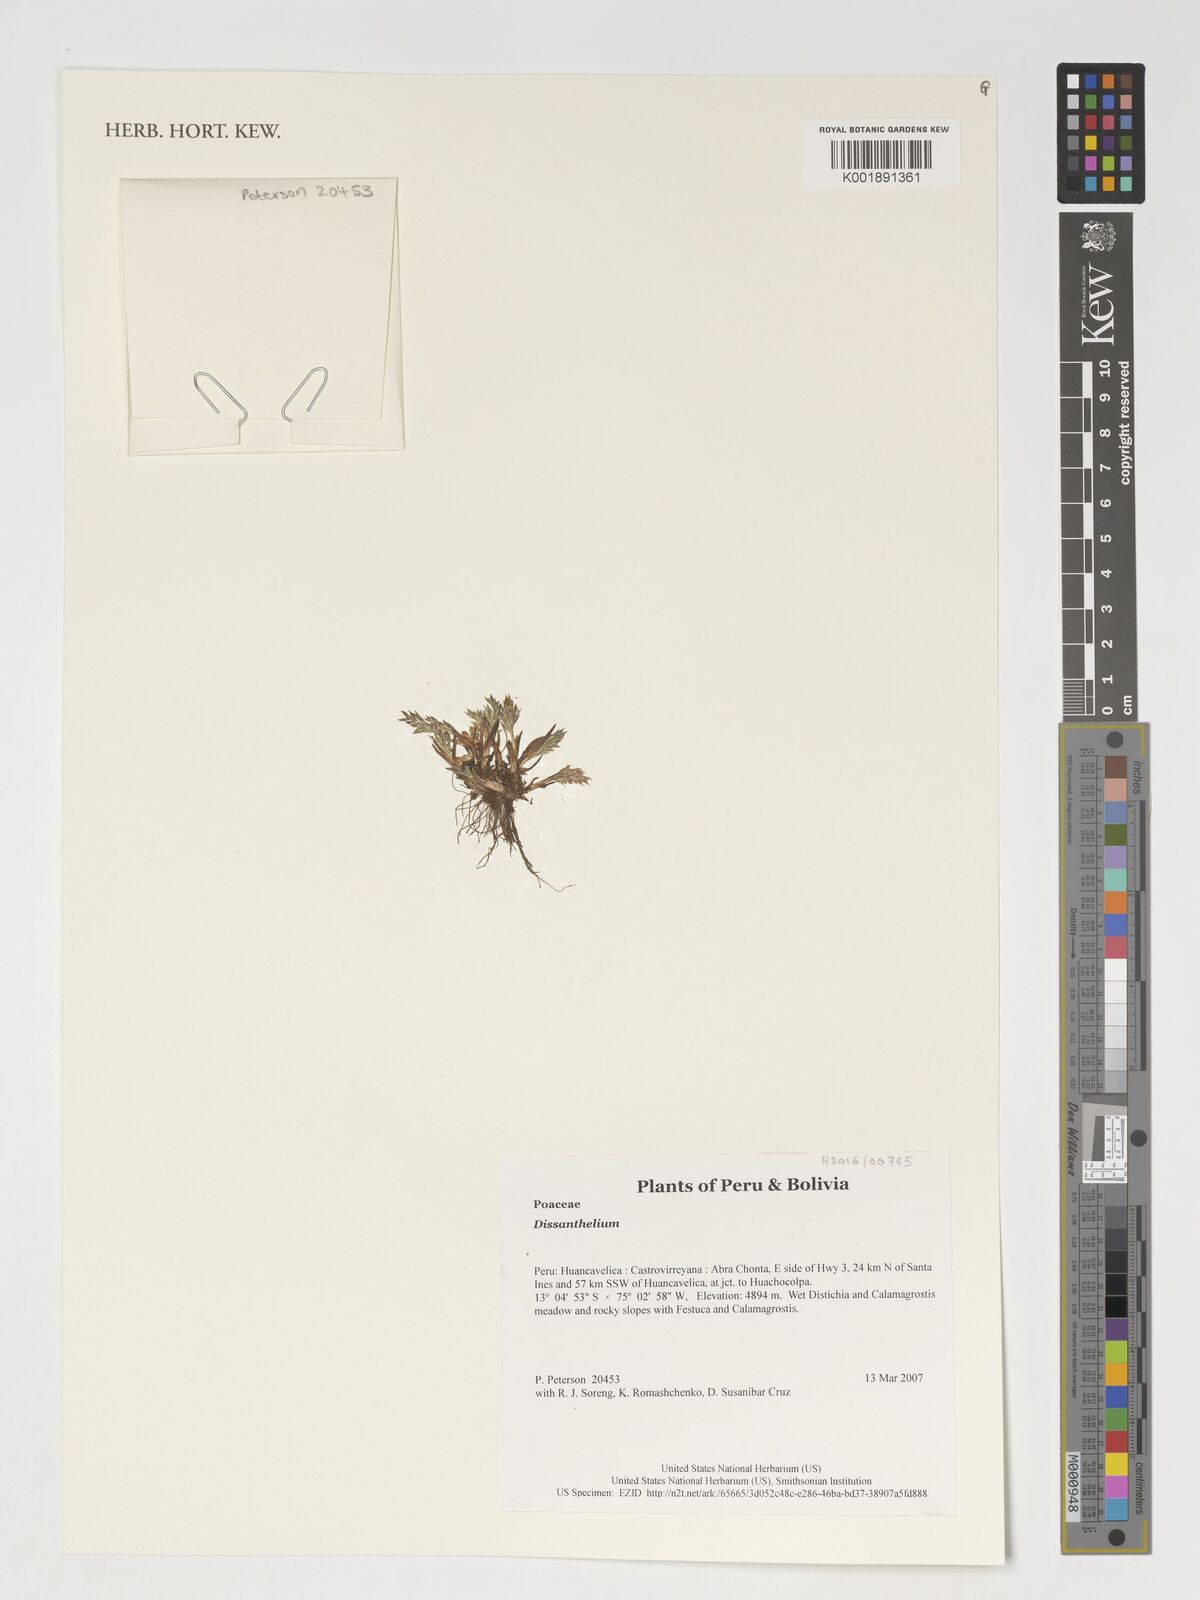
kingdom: Plantae
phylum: Tracheophyta
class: Liliopsida
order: Poales
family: Poaceae
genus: Poa
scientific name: Poa
